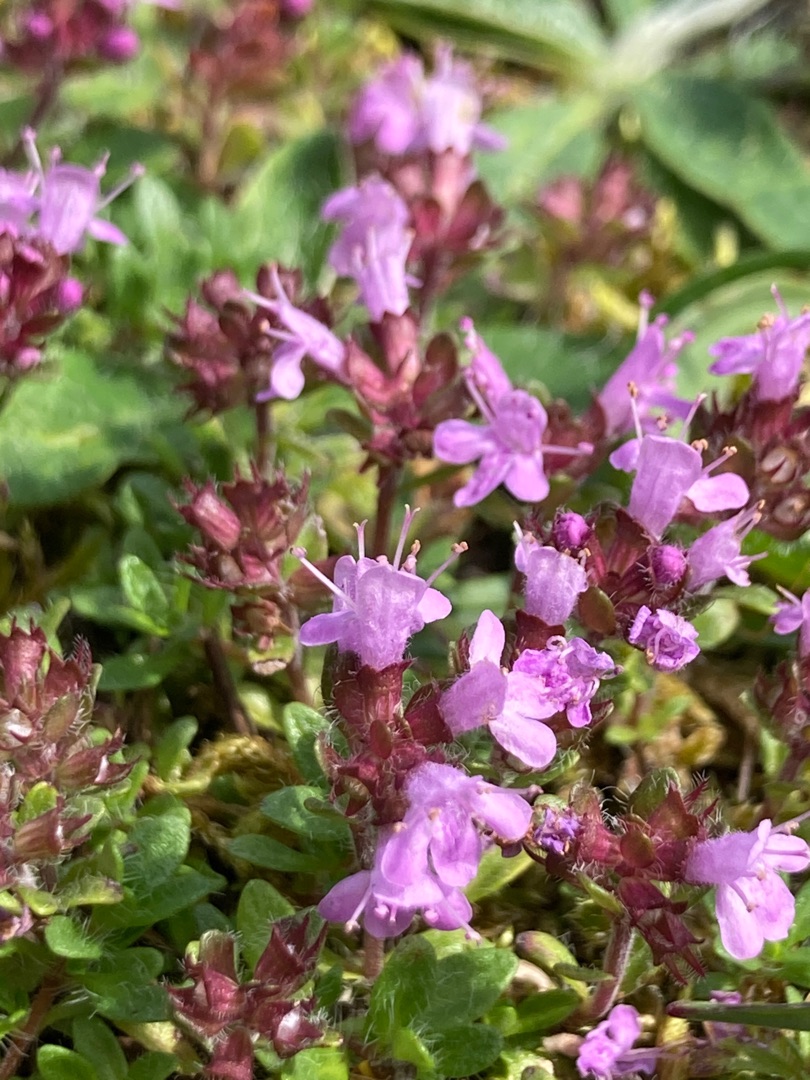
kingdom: Plantae
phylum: Tracheophyta
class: Magnoliopsida
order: Lamiales
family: Lamiaceae
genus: Thymus
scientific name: Thymus serpyllum
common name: Smalbladet timian
